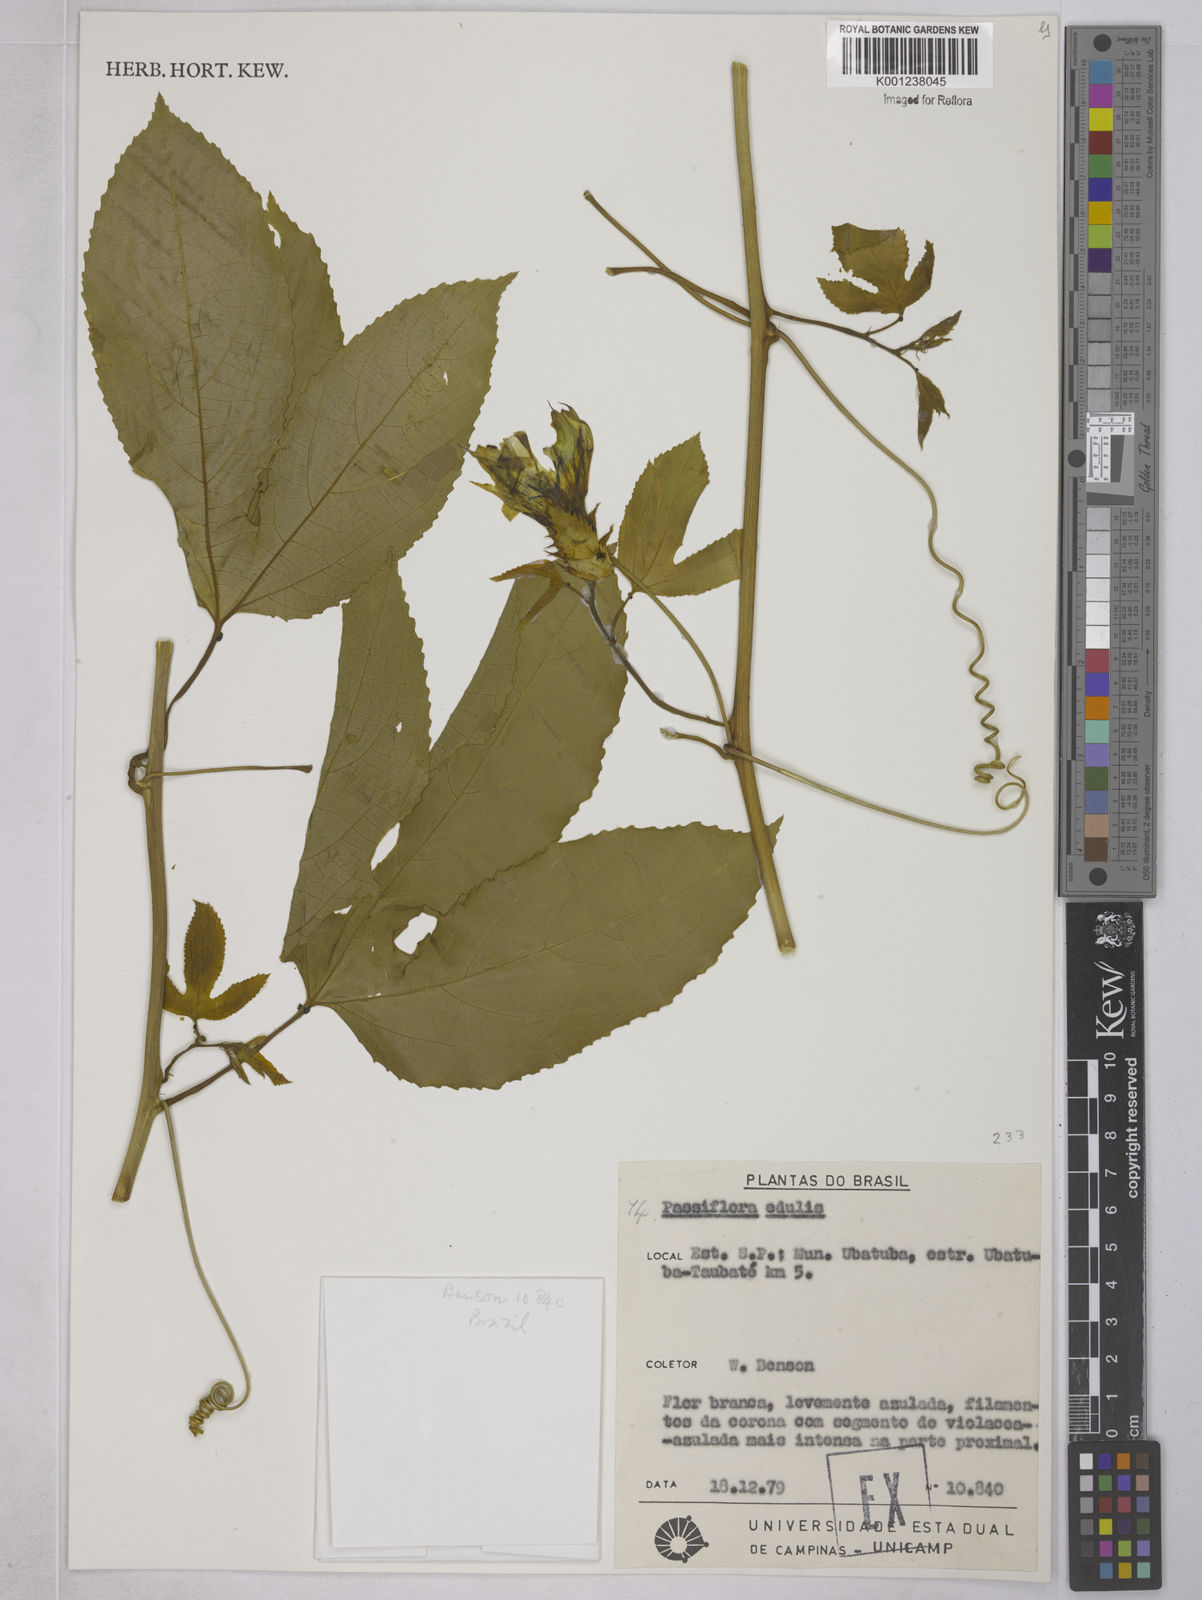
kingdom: Plantae
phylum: Tracheophyta
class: Magnoliopsida
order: Malpighiales
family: Passifloraceae
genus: Passiflora
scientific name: Passiflora edulis
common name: Purple granadilla
